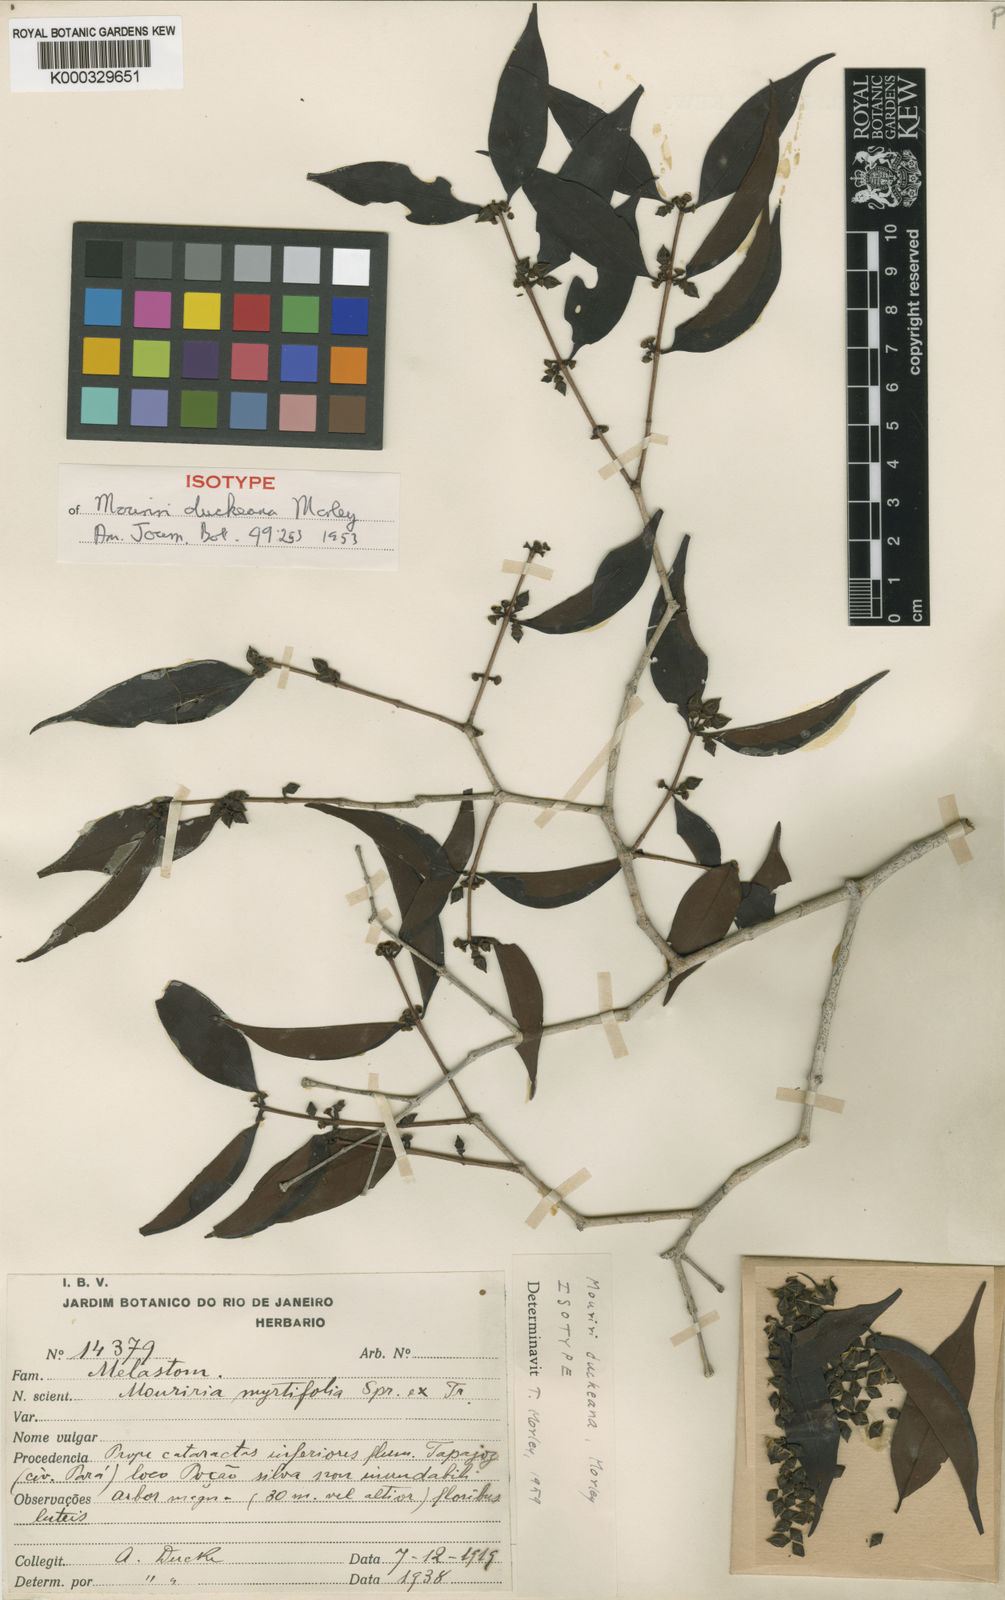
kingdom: Plantae
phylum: Tracheophyta
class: Magnoliopsida
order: Myrtales
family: Melastomataceae
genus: Mouriri
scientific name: Mouriri duckeana
